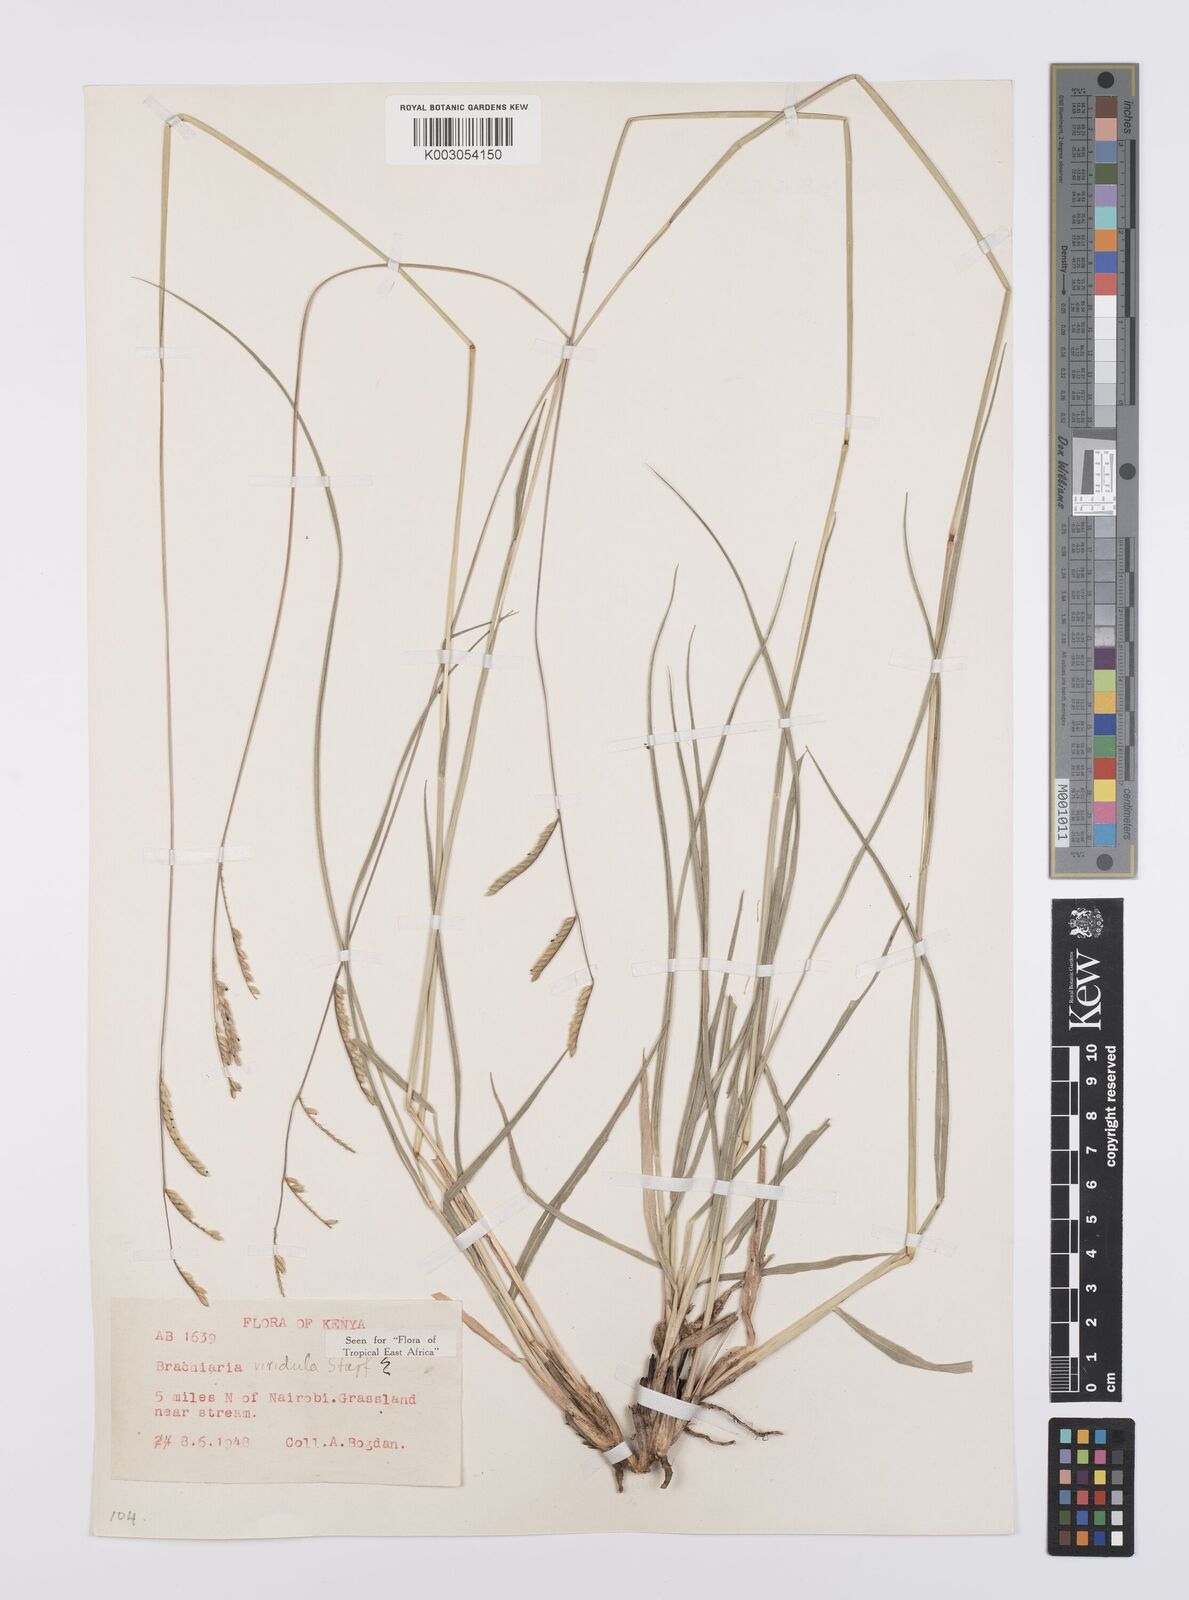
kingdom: Plantae
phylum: Tracheophyta
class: Liliopsida
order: Poales
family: Poaceae
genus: Urochloa
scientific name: Urochloa bovonei
